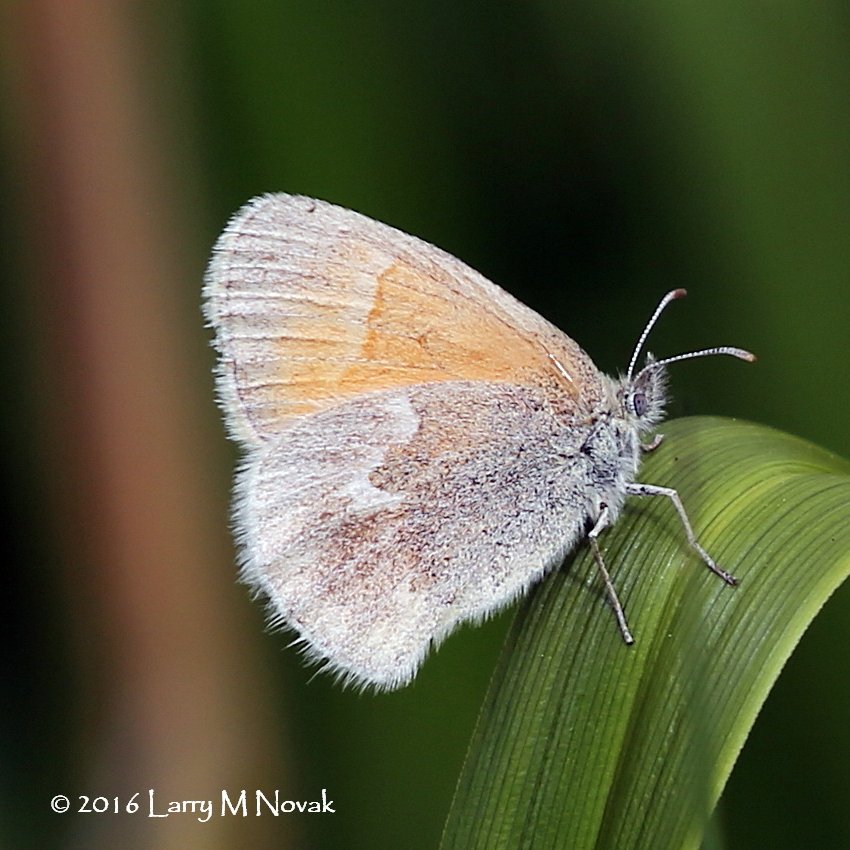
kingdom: Animalia
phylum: Arthropoda
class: Insecta
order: Lepidoptera
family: Nymphalidae
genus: Coenonympha
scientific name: Coenonympha tullia
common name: Large Heath
